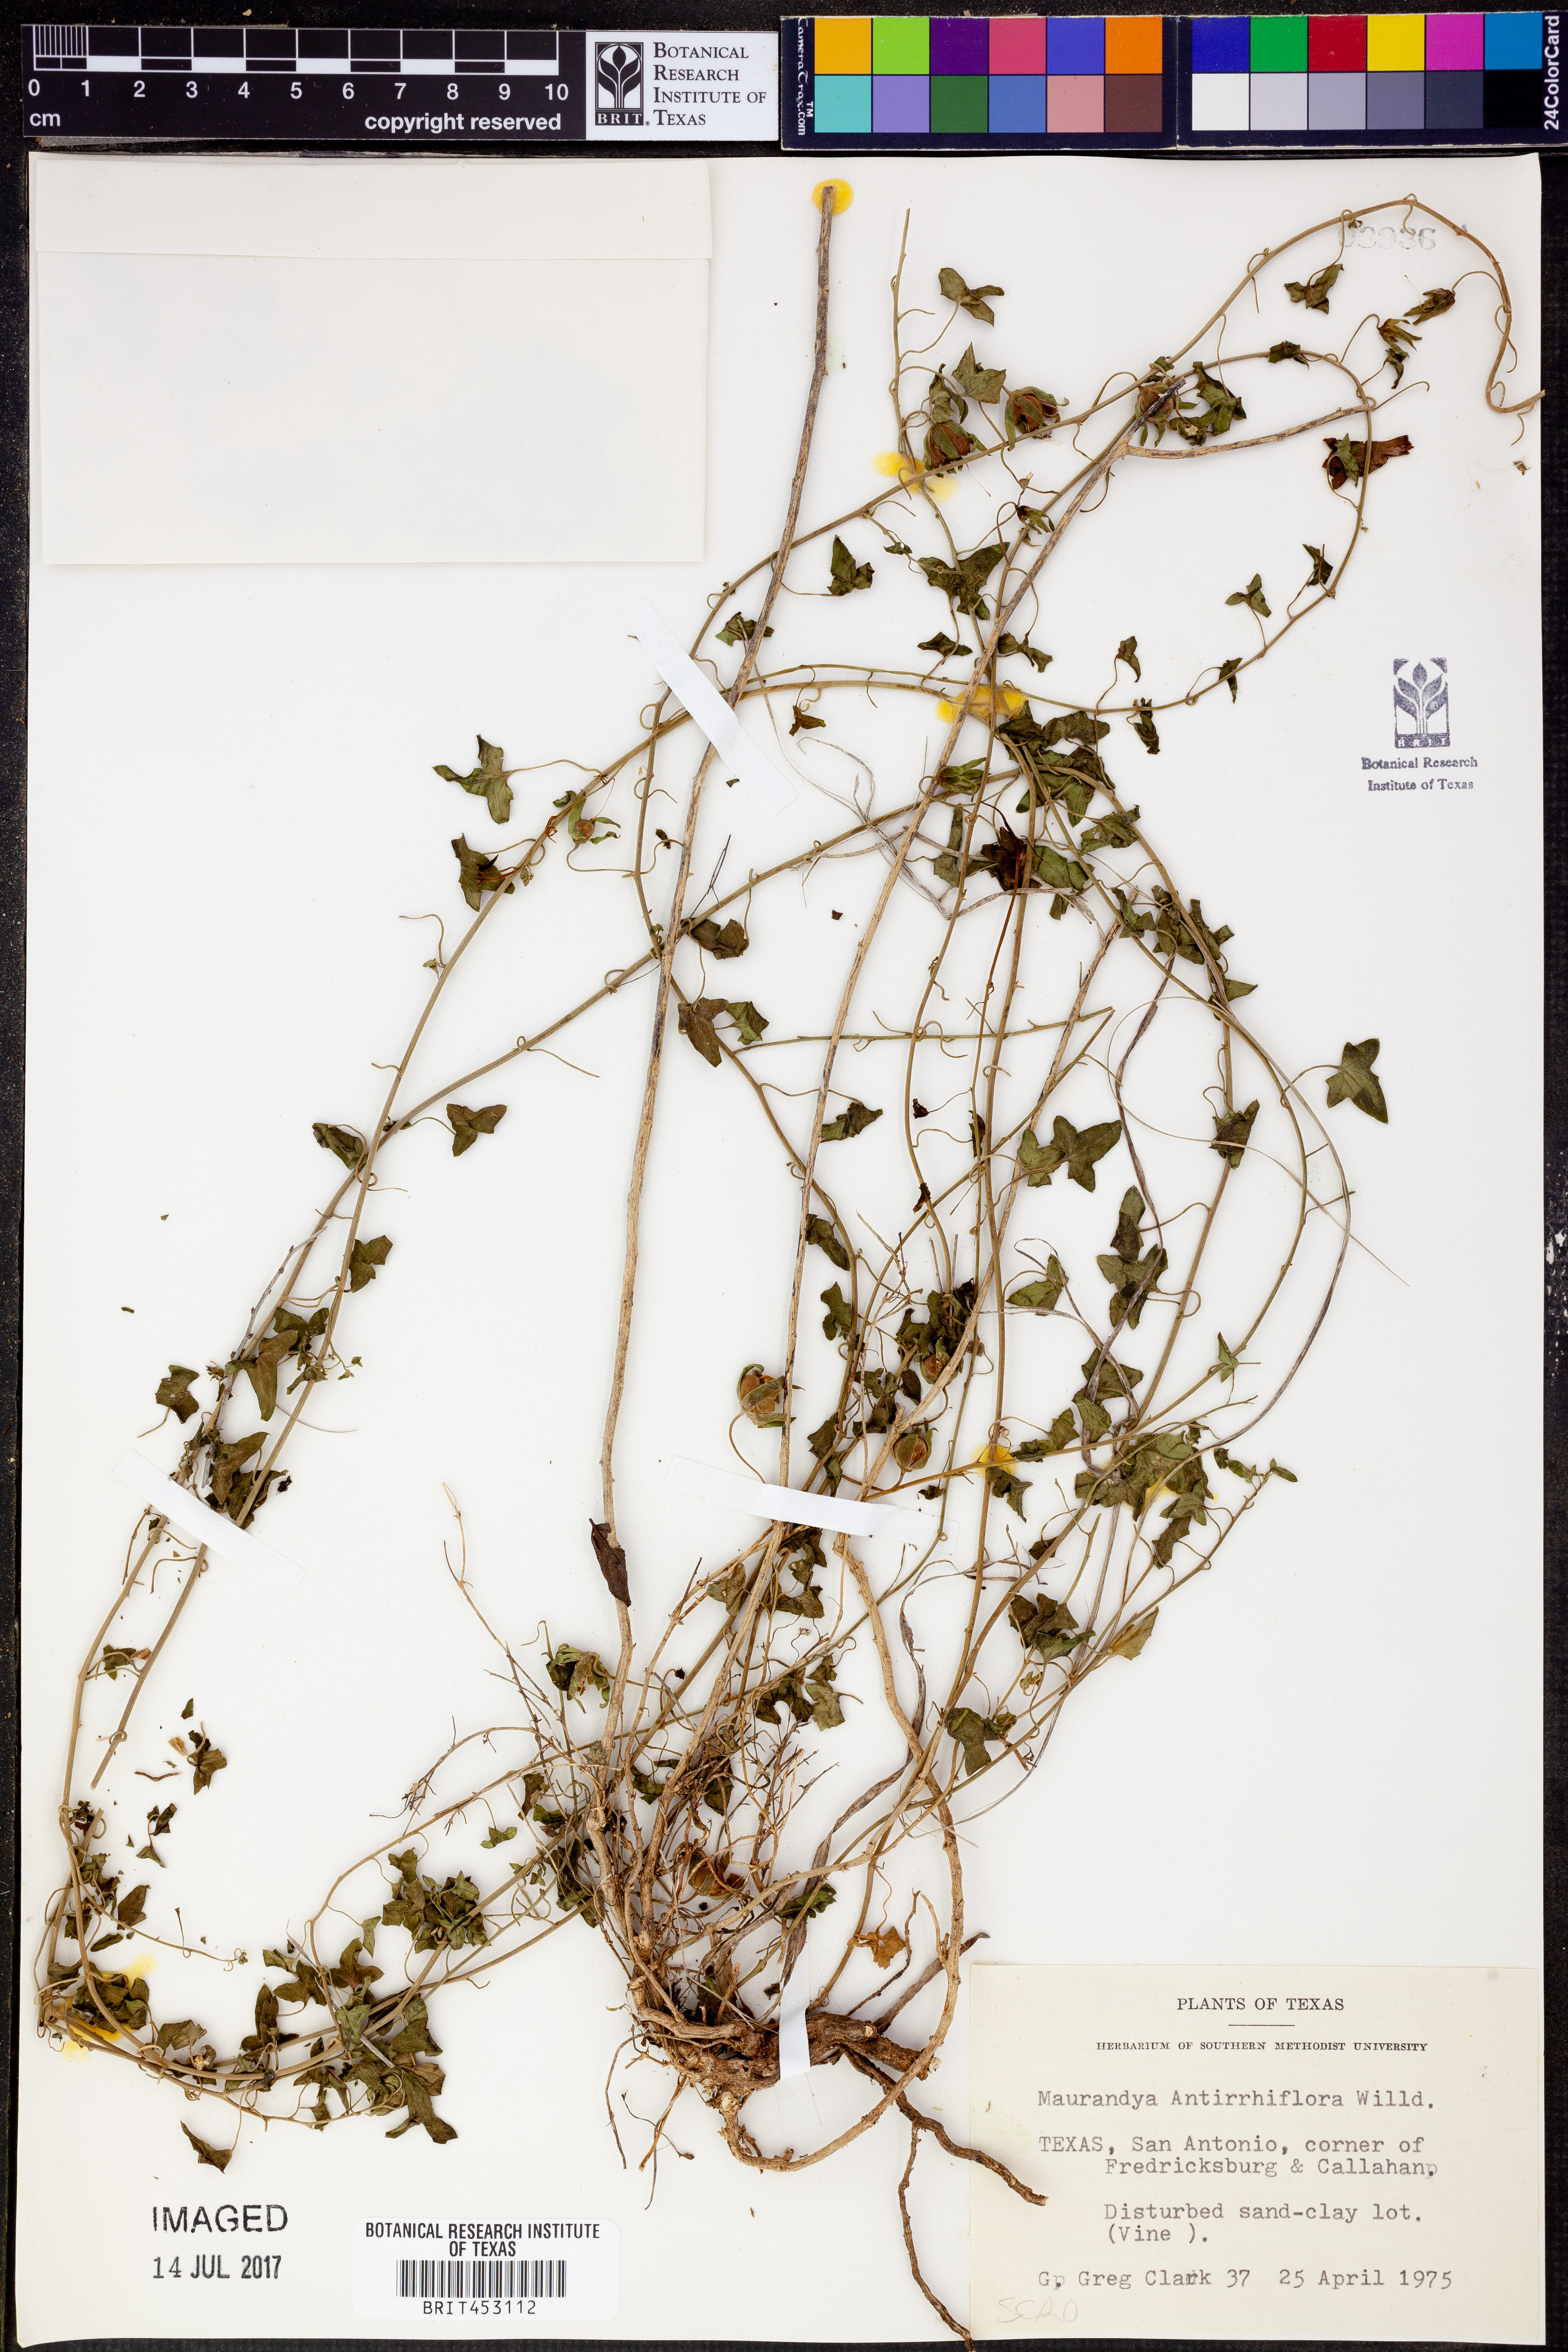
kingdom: Plantae
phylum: Tracheophyta
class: Magnoliopsida
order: Lamiales
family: Plantaginaceae
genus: Maurandella
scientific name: Maurandella antirrhiniflora
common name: Violet twining-snapdragon
